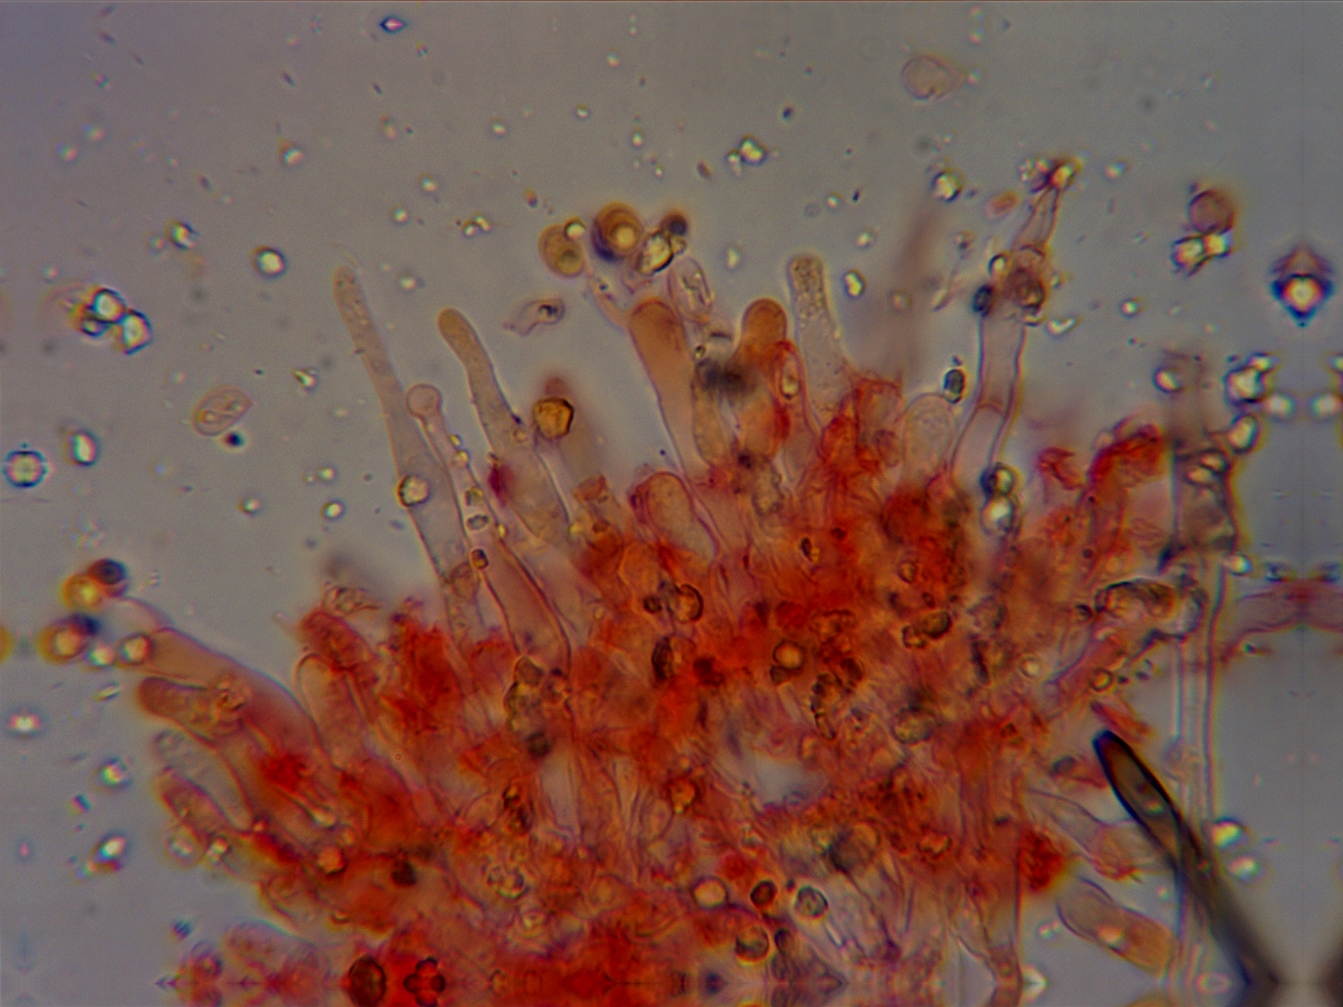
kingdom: Fungi
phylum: Basidiomycota
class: Agaricomycetes
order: Corticiales
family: Corticiaceae
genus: Lyomyces
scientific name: Lyomyces sambuci
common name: almindelig hyldehinde
